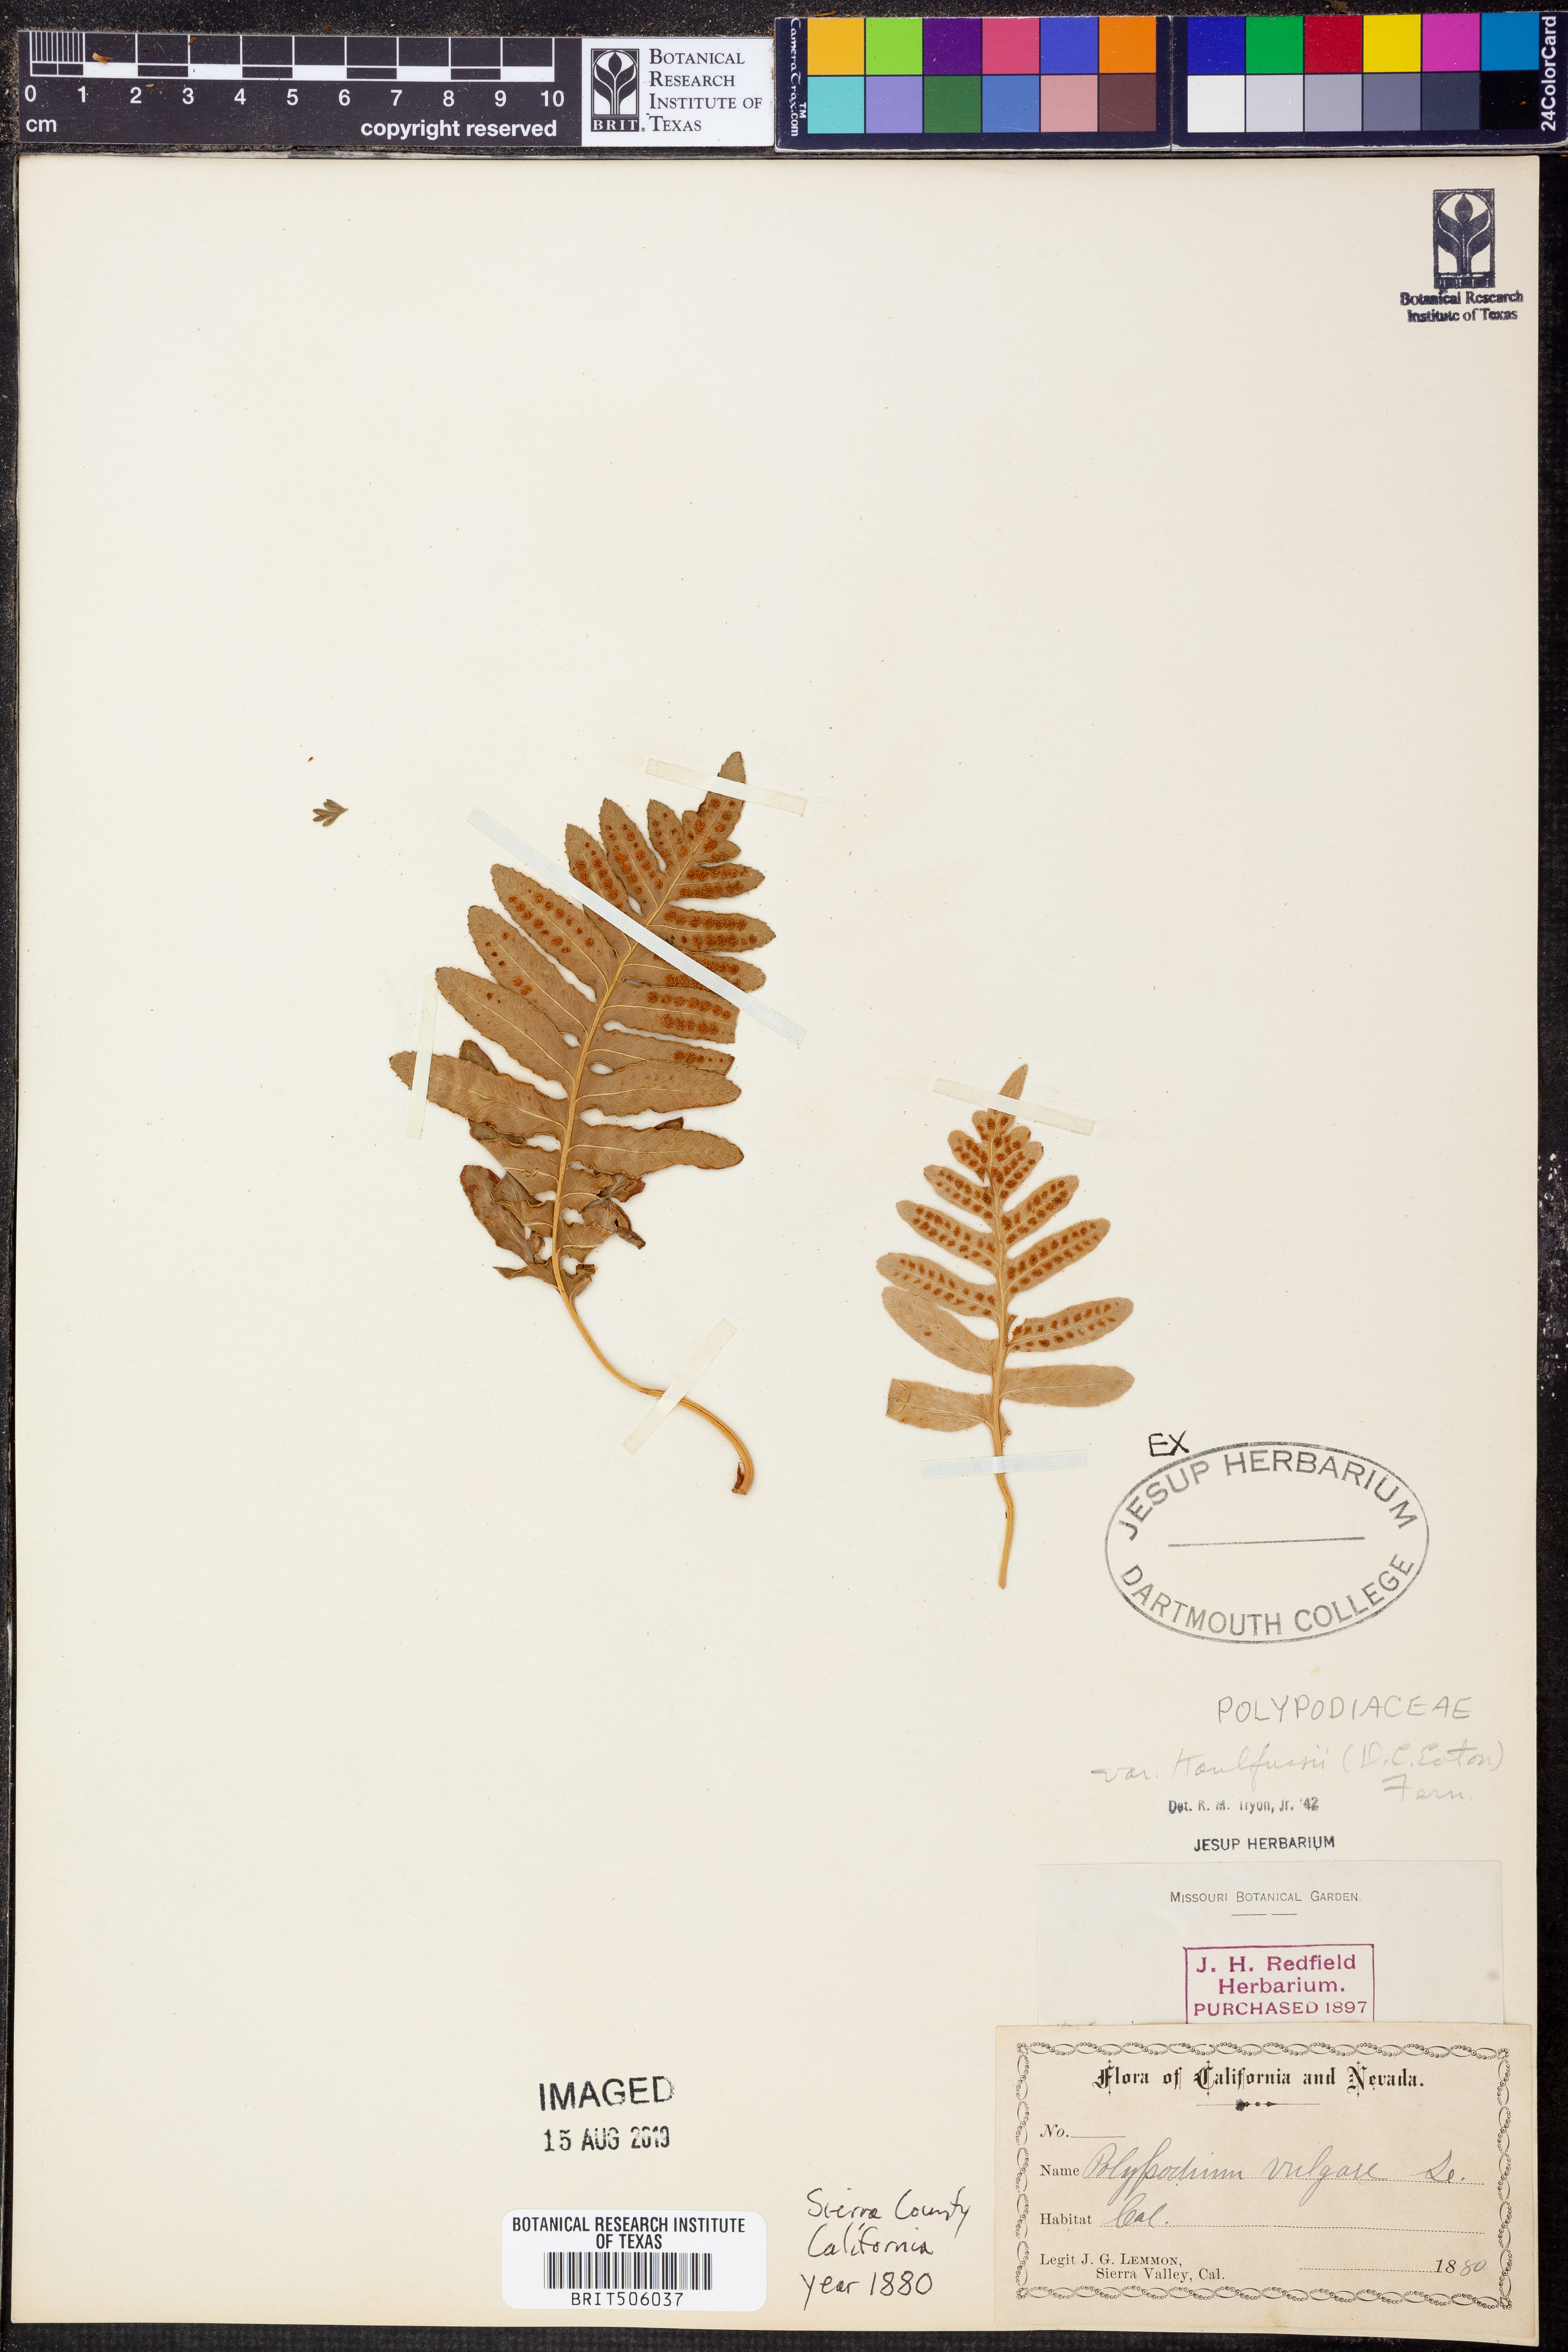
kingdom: Plantae
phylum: Tracheophyta
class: Polypodiopsida
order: Polypodiales
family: Polypodiaceae
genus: Polypodium
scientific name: Polypodium californicum
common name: California polypody
